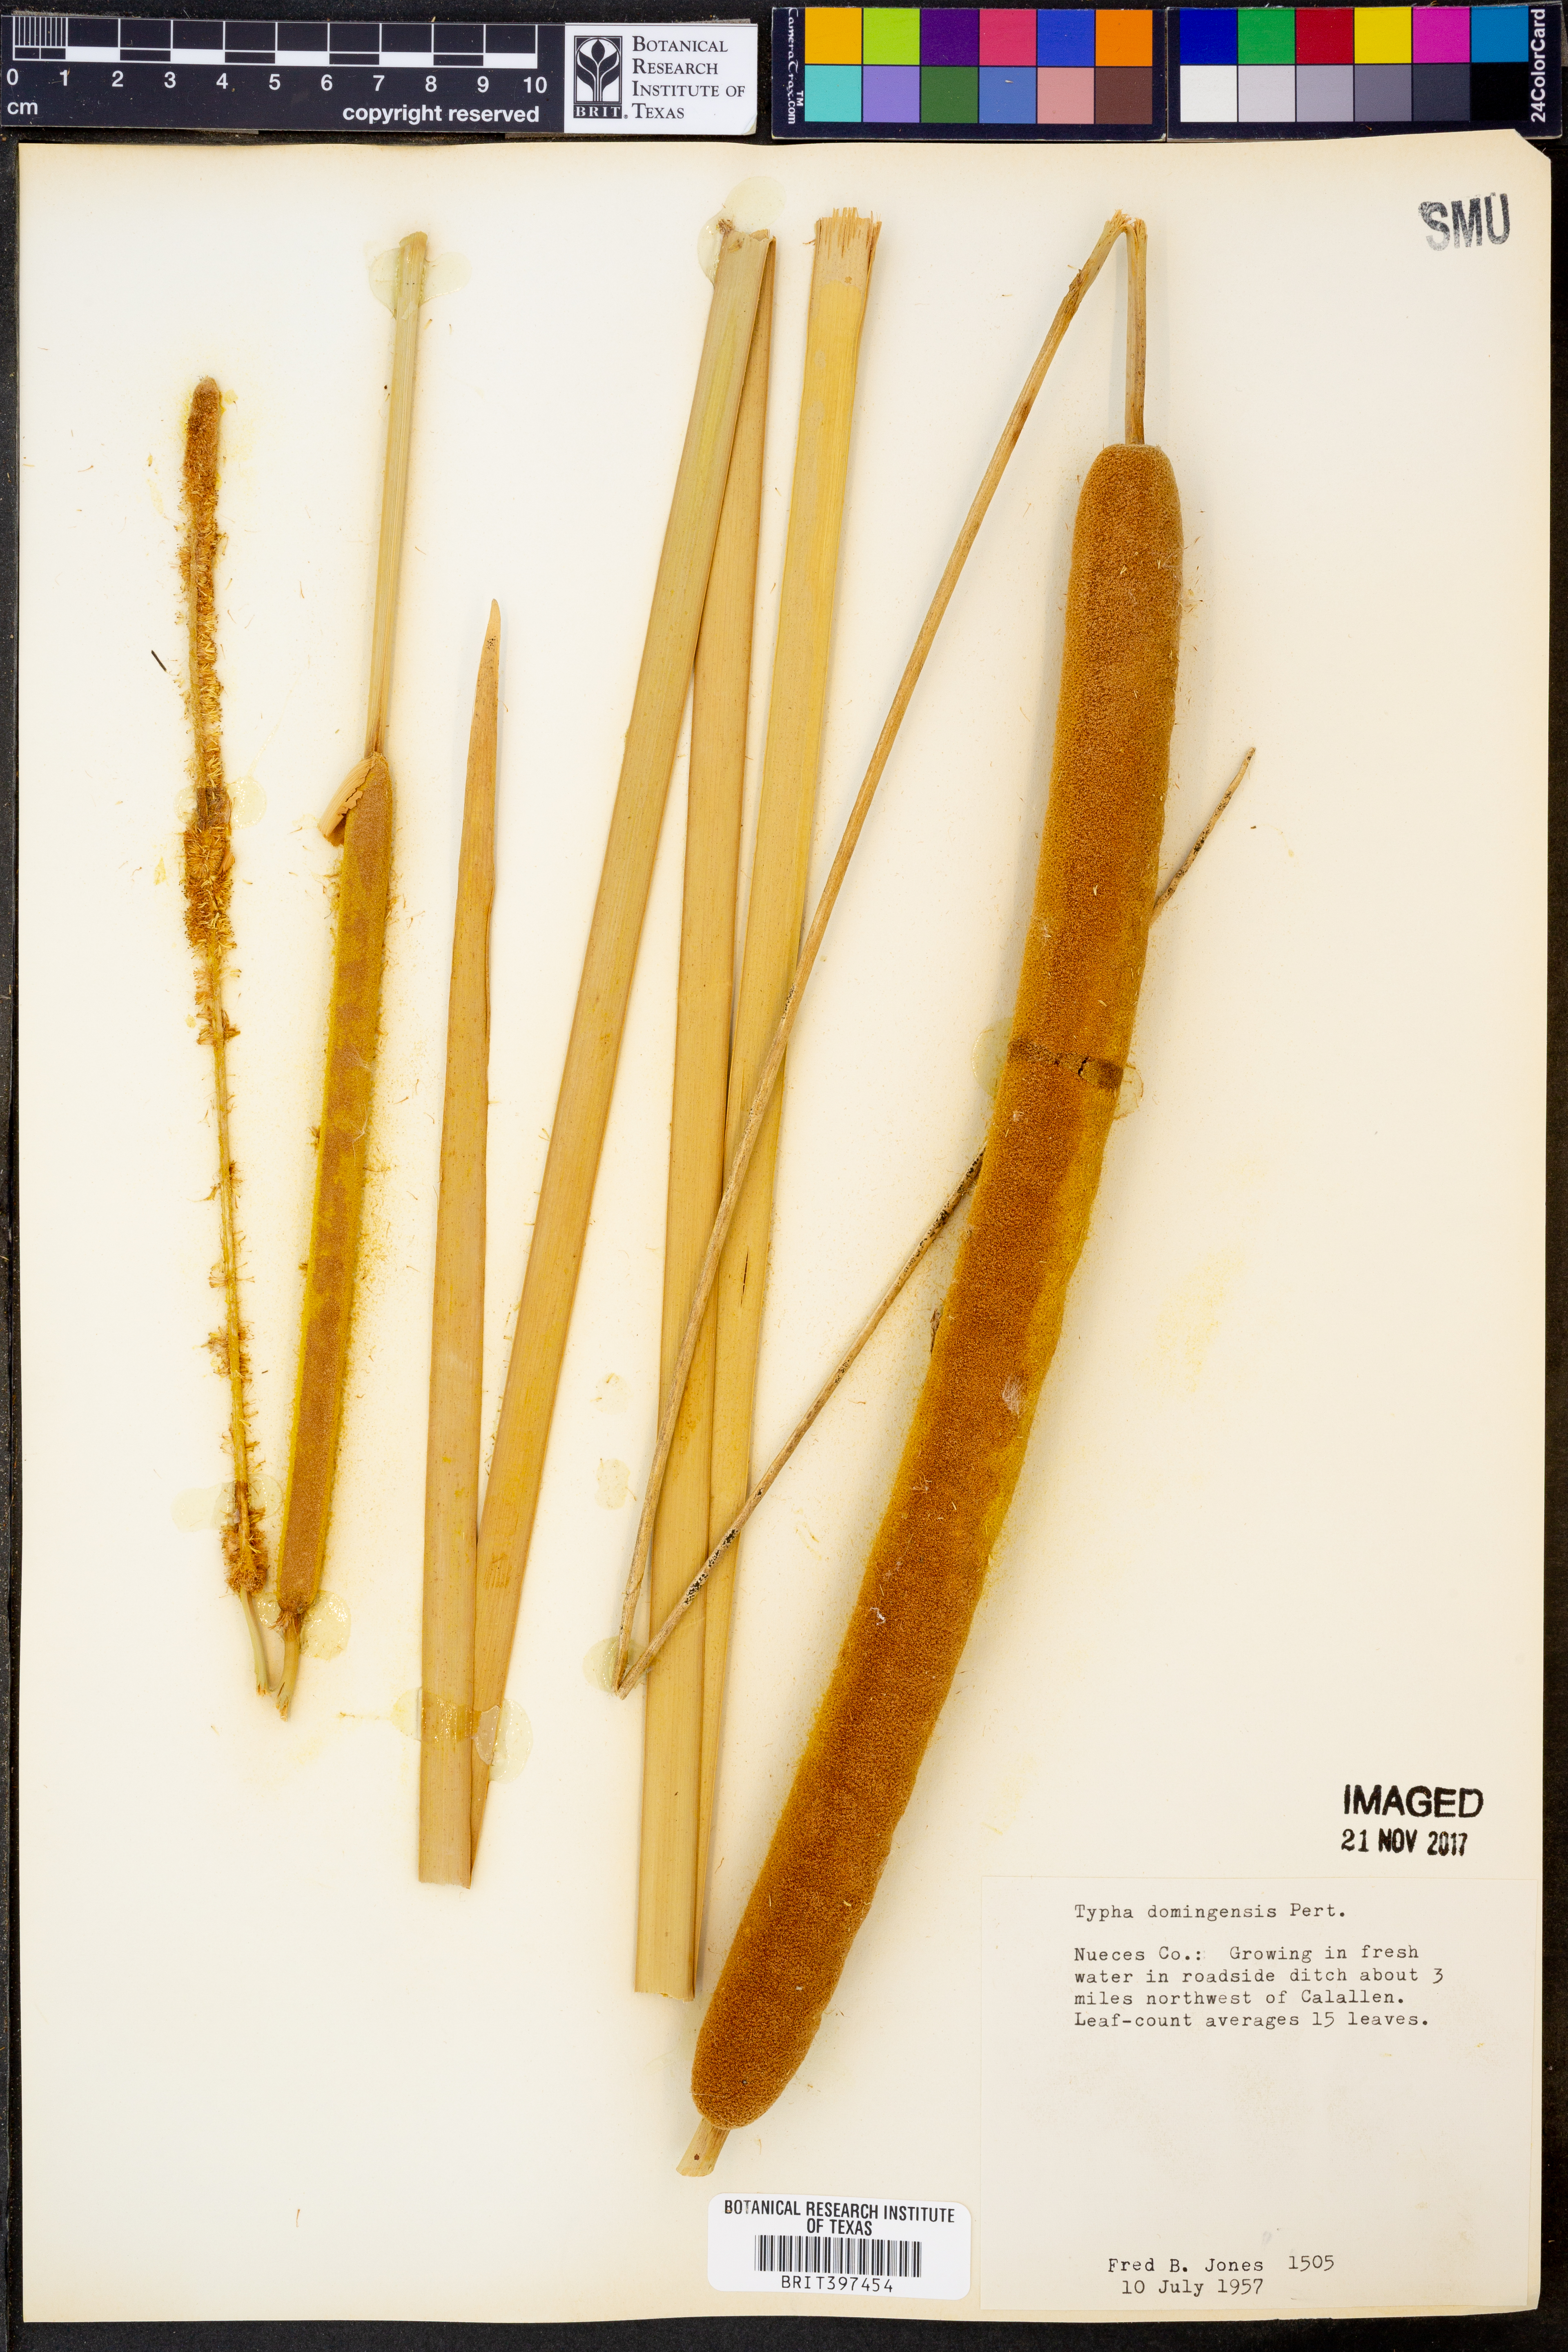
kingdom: Plantae
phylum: Tracheophyta
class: Liliopsida
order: Poales
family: Typhaceae
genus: Typha
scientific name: Typha domingensis
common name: Southern cattail
